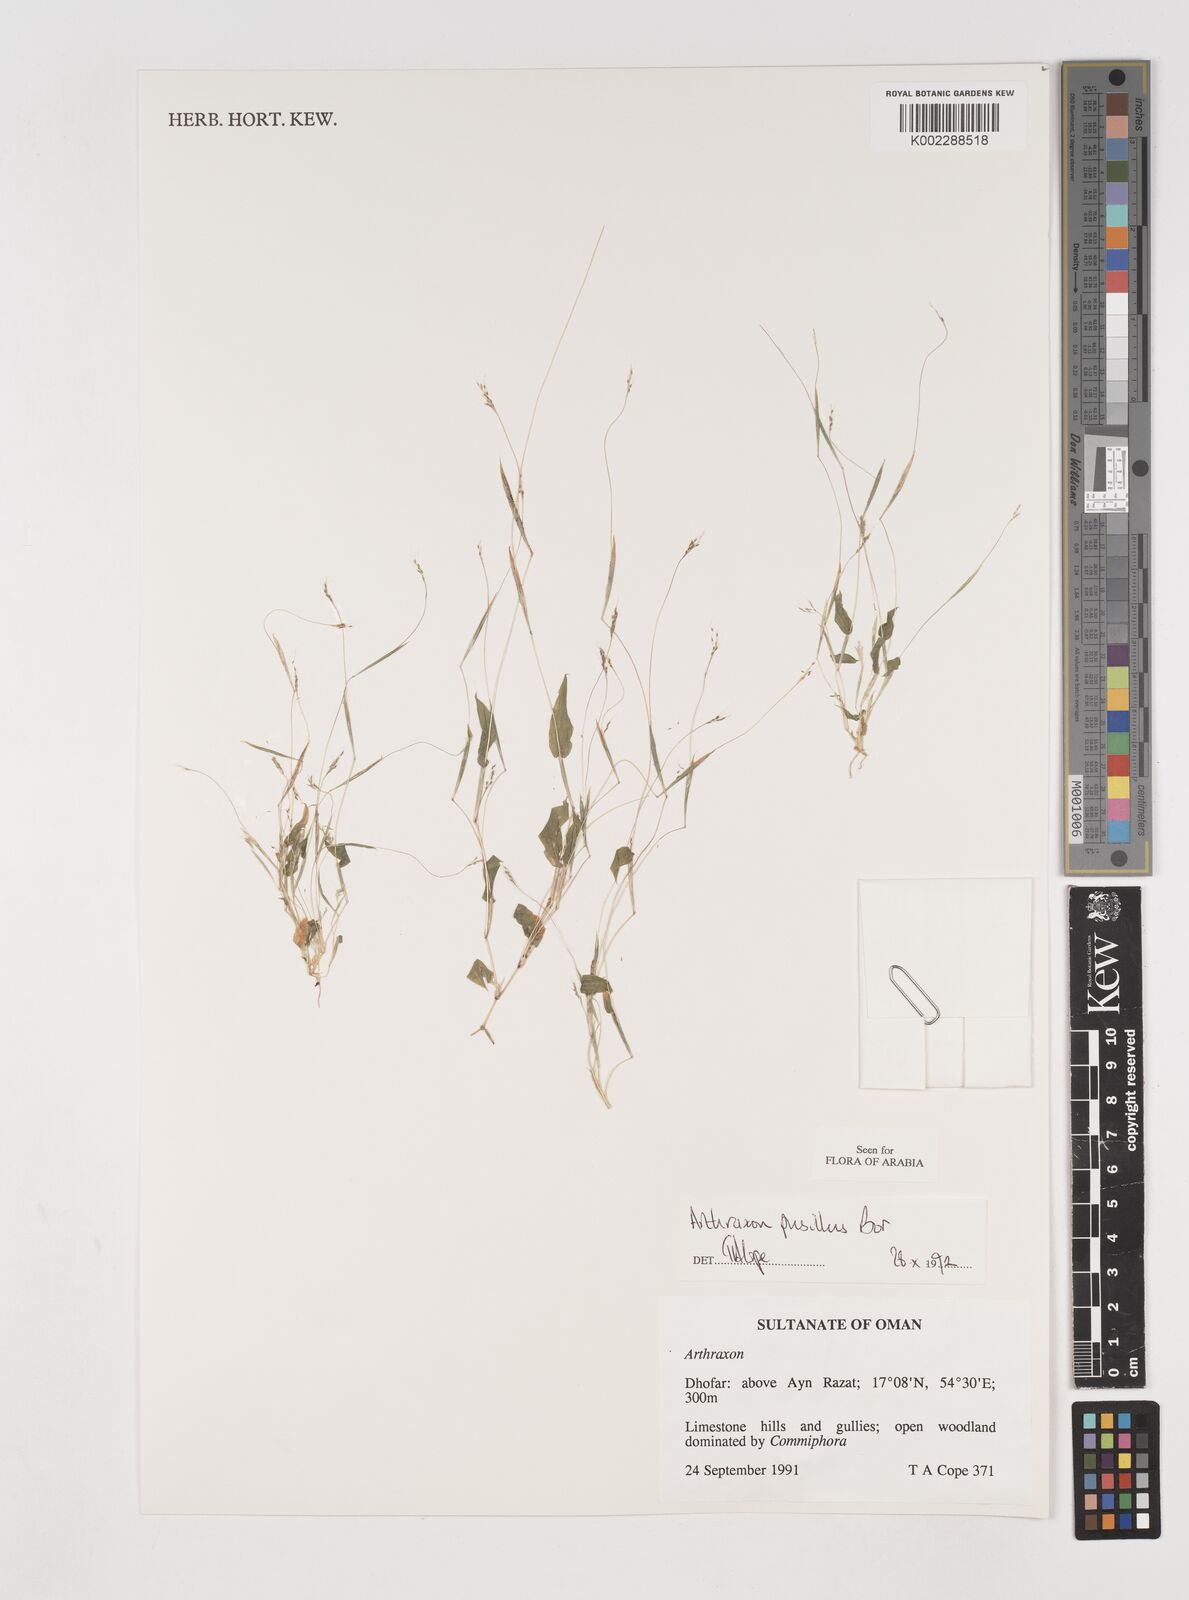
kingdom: Plantae
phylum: Tracheophyta
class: Liliopsida
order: Poales
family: Poaceae
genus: Arthraxon
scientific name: Arthraxon junnarensis
